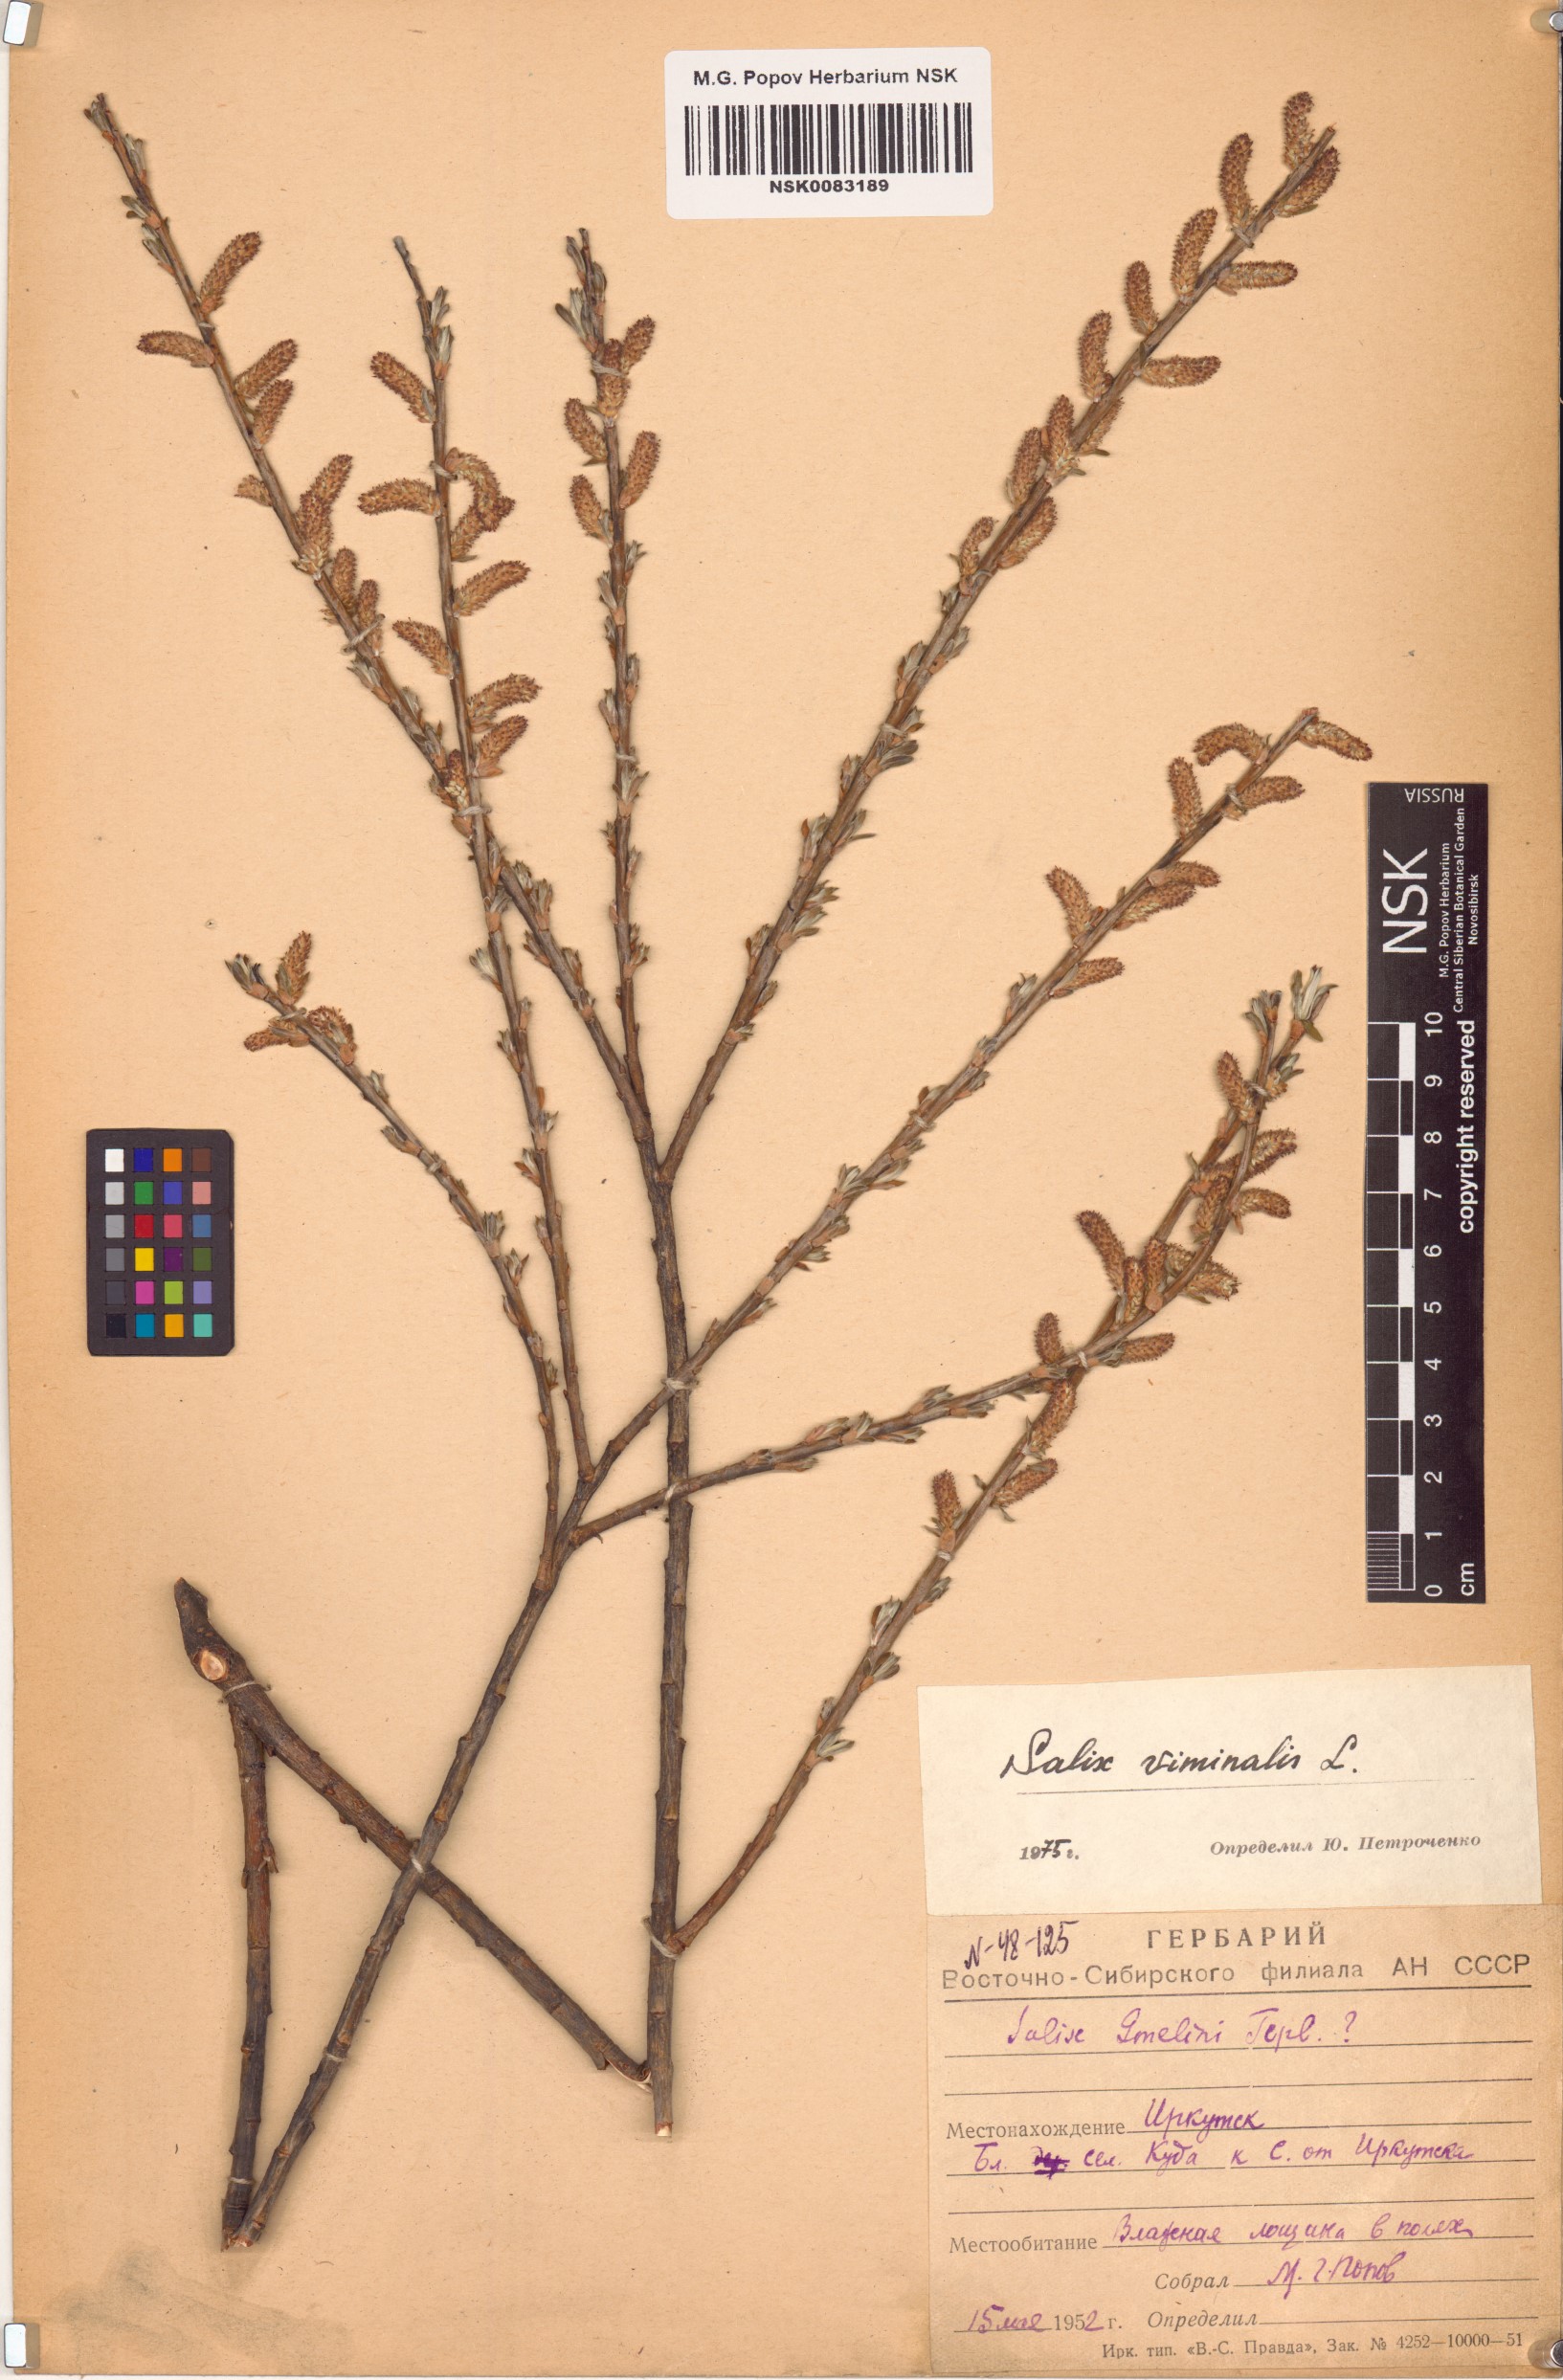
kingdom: Plantae
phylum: Tracheophyta
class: Magnoliopsida
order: Malpighiales
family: Salicaceae
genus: Salix
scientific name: Salix viminalis
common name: Osier
